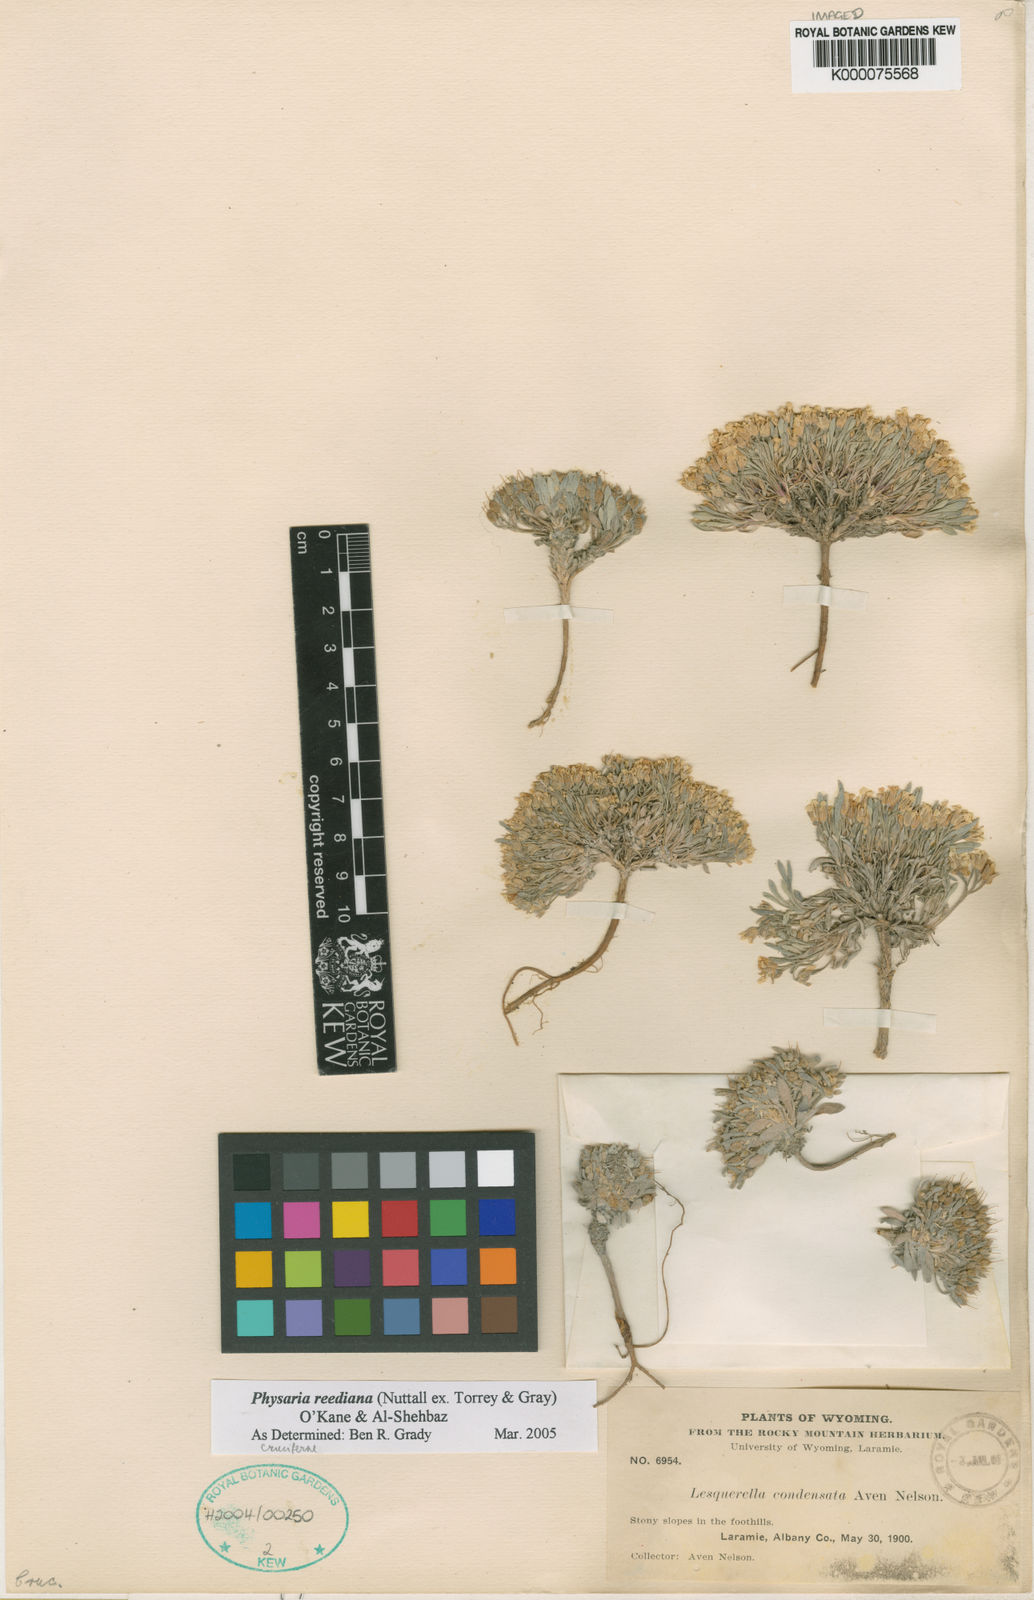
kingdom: Plantae
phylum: Tracheophyta
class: Magnoliopsida
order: Brassicales
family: Brassicaceae
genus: Physaria
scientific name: Physaria reediana
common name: Rollins's bladderpod
